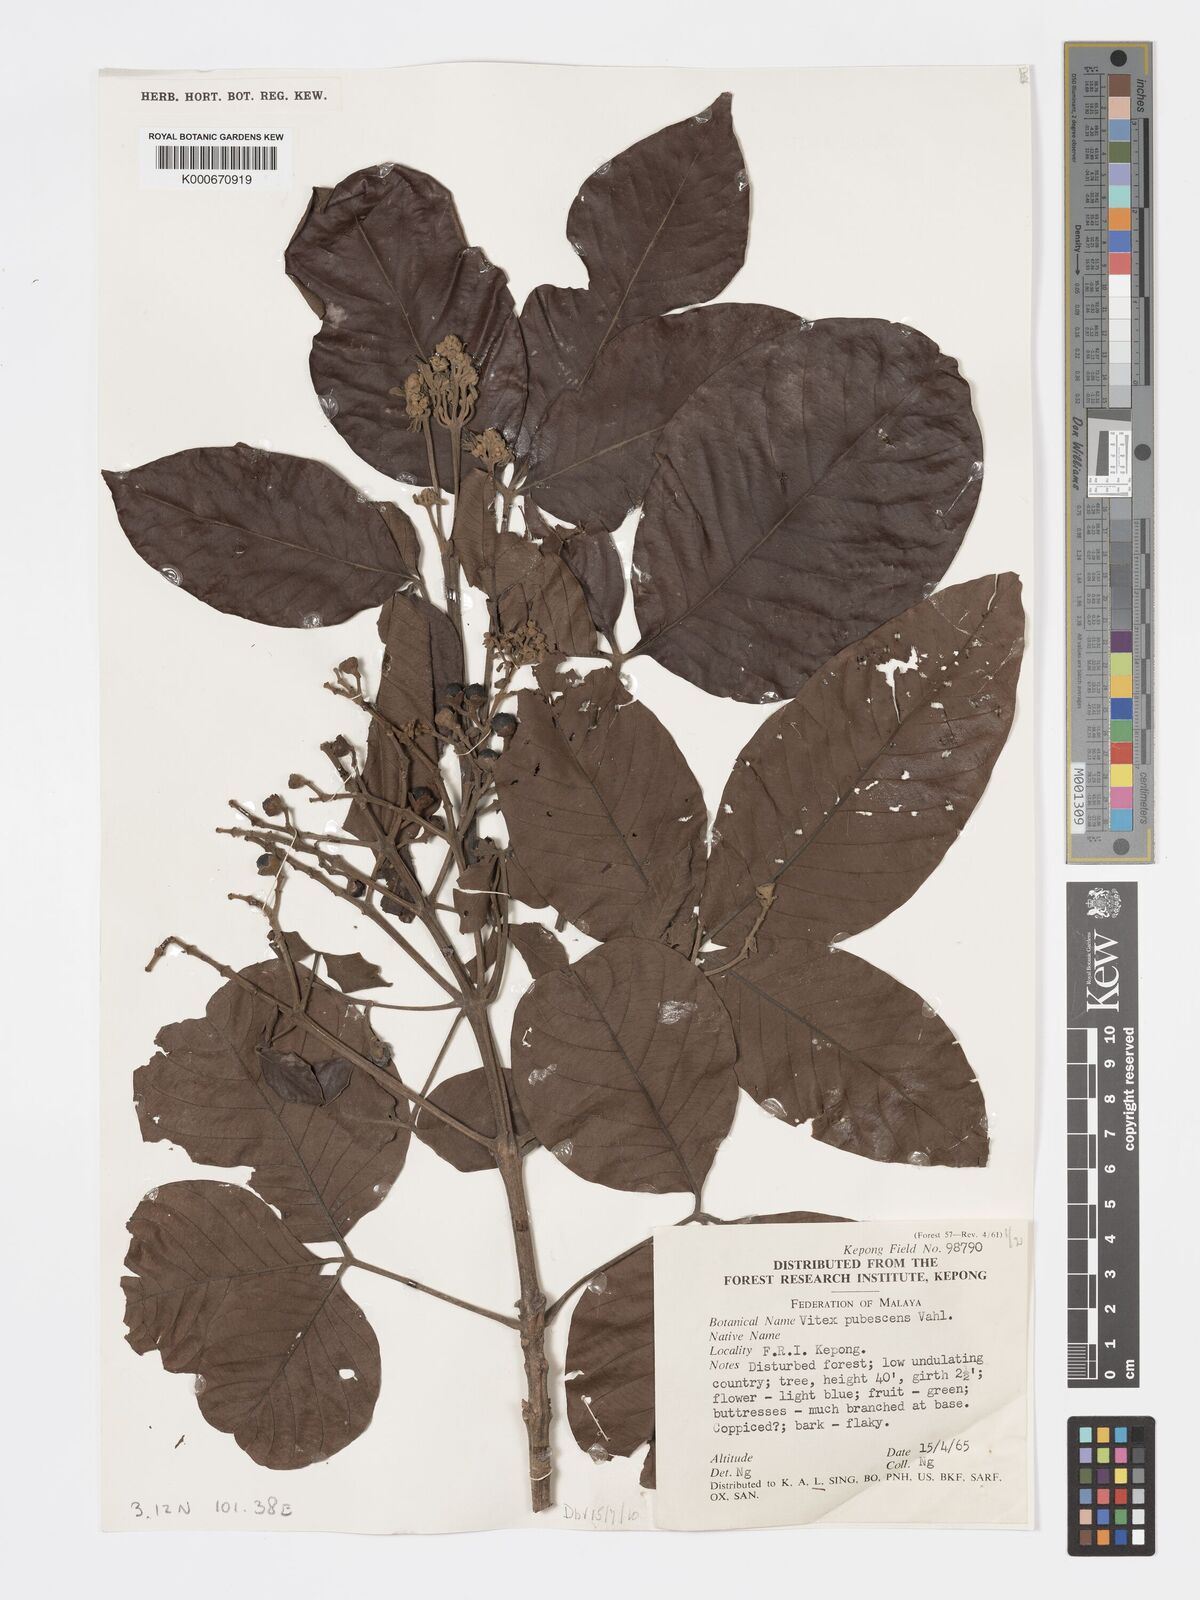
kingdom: Plantae
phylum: Tracheophyta
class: Magnoliopsida
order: Lamiales
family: Lamiaceae
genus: Vitex
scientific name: Vitex pinnata
